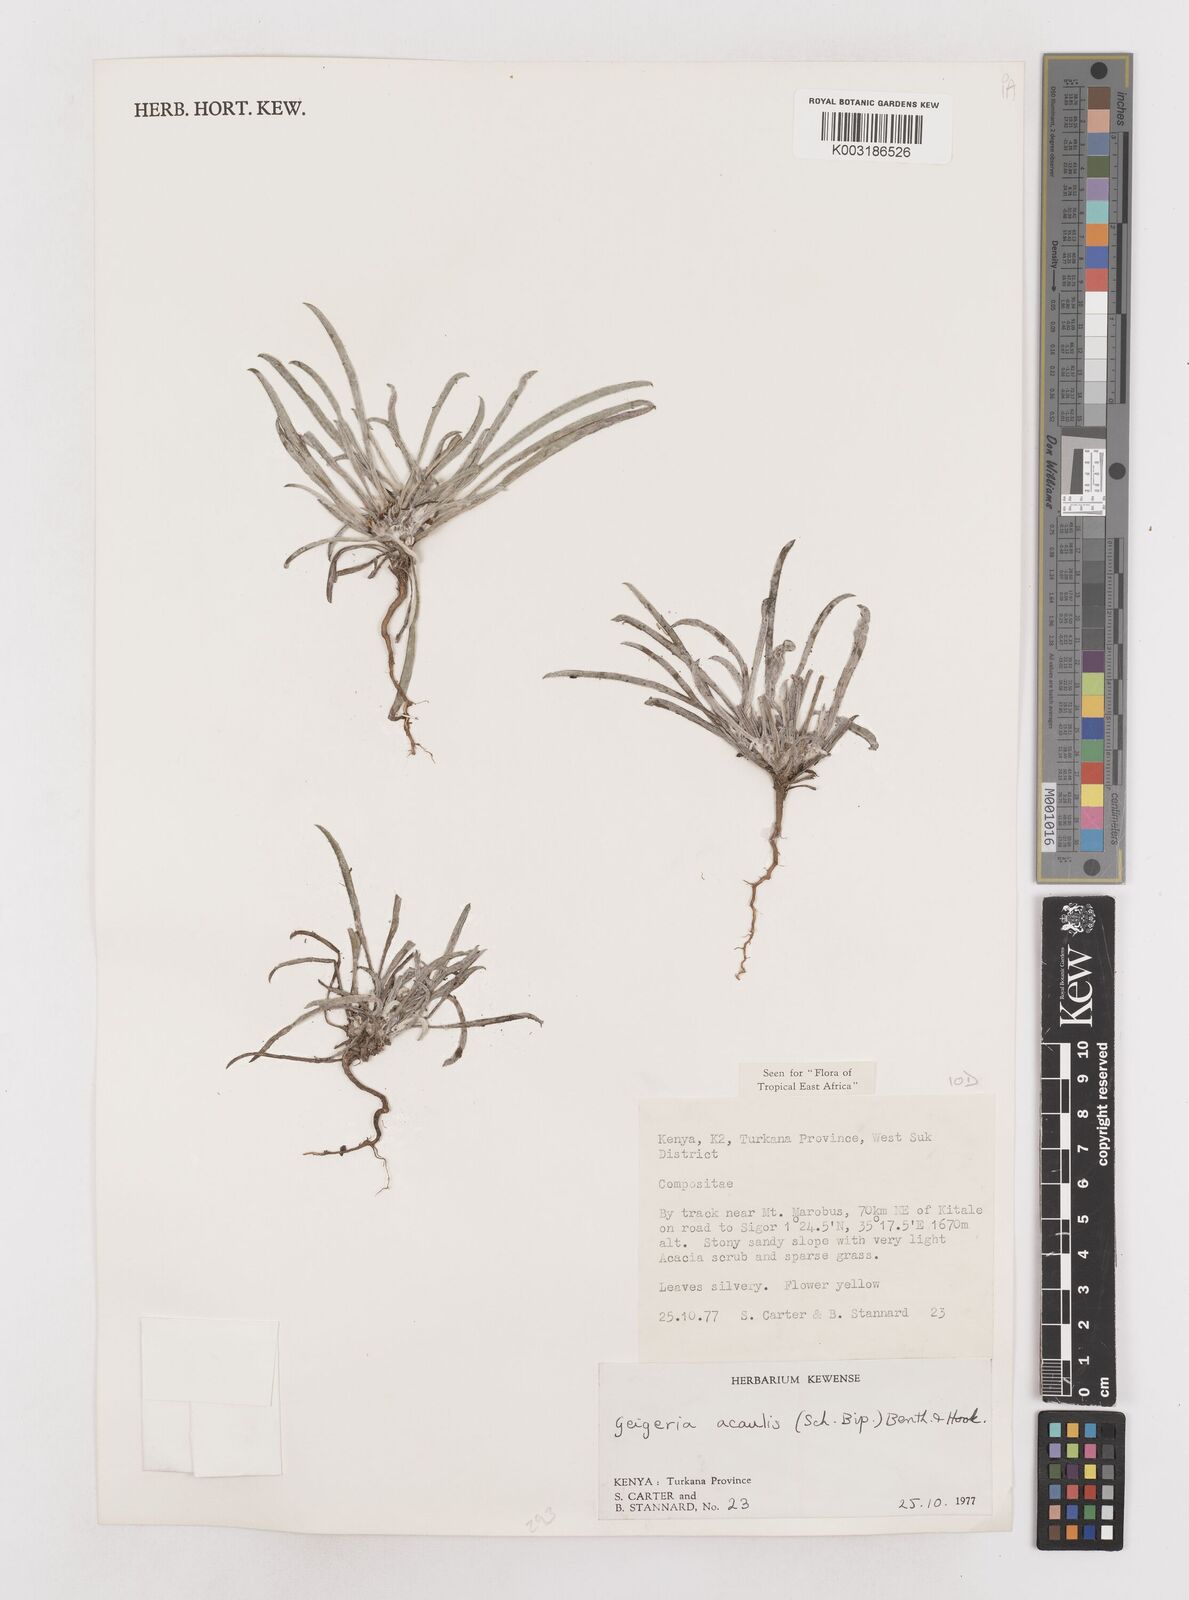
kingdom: Plantae
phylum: Tracheophyta
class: Magnoliopsida
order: Asterales
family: Asteraceae
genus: Geigeria
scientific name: Geigeria acaulis
